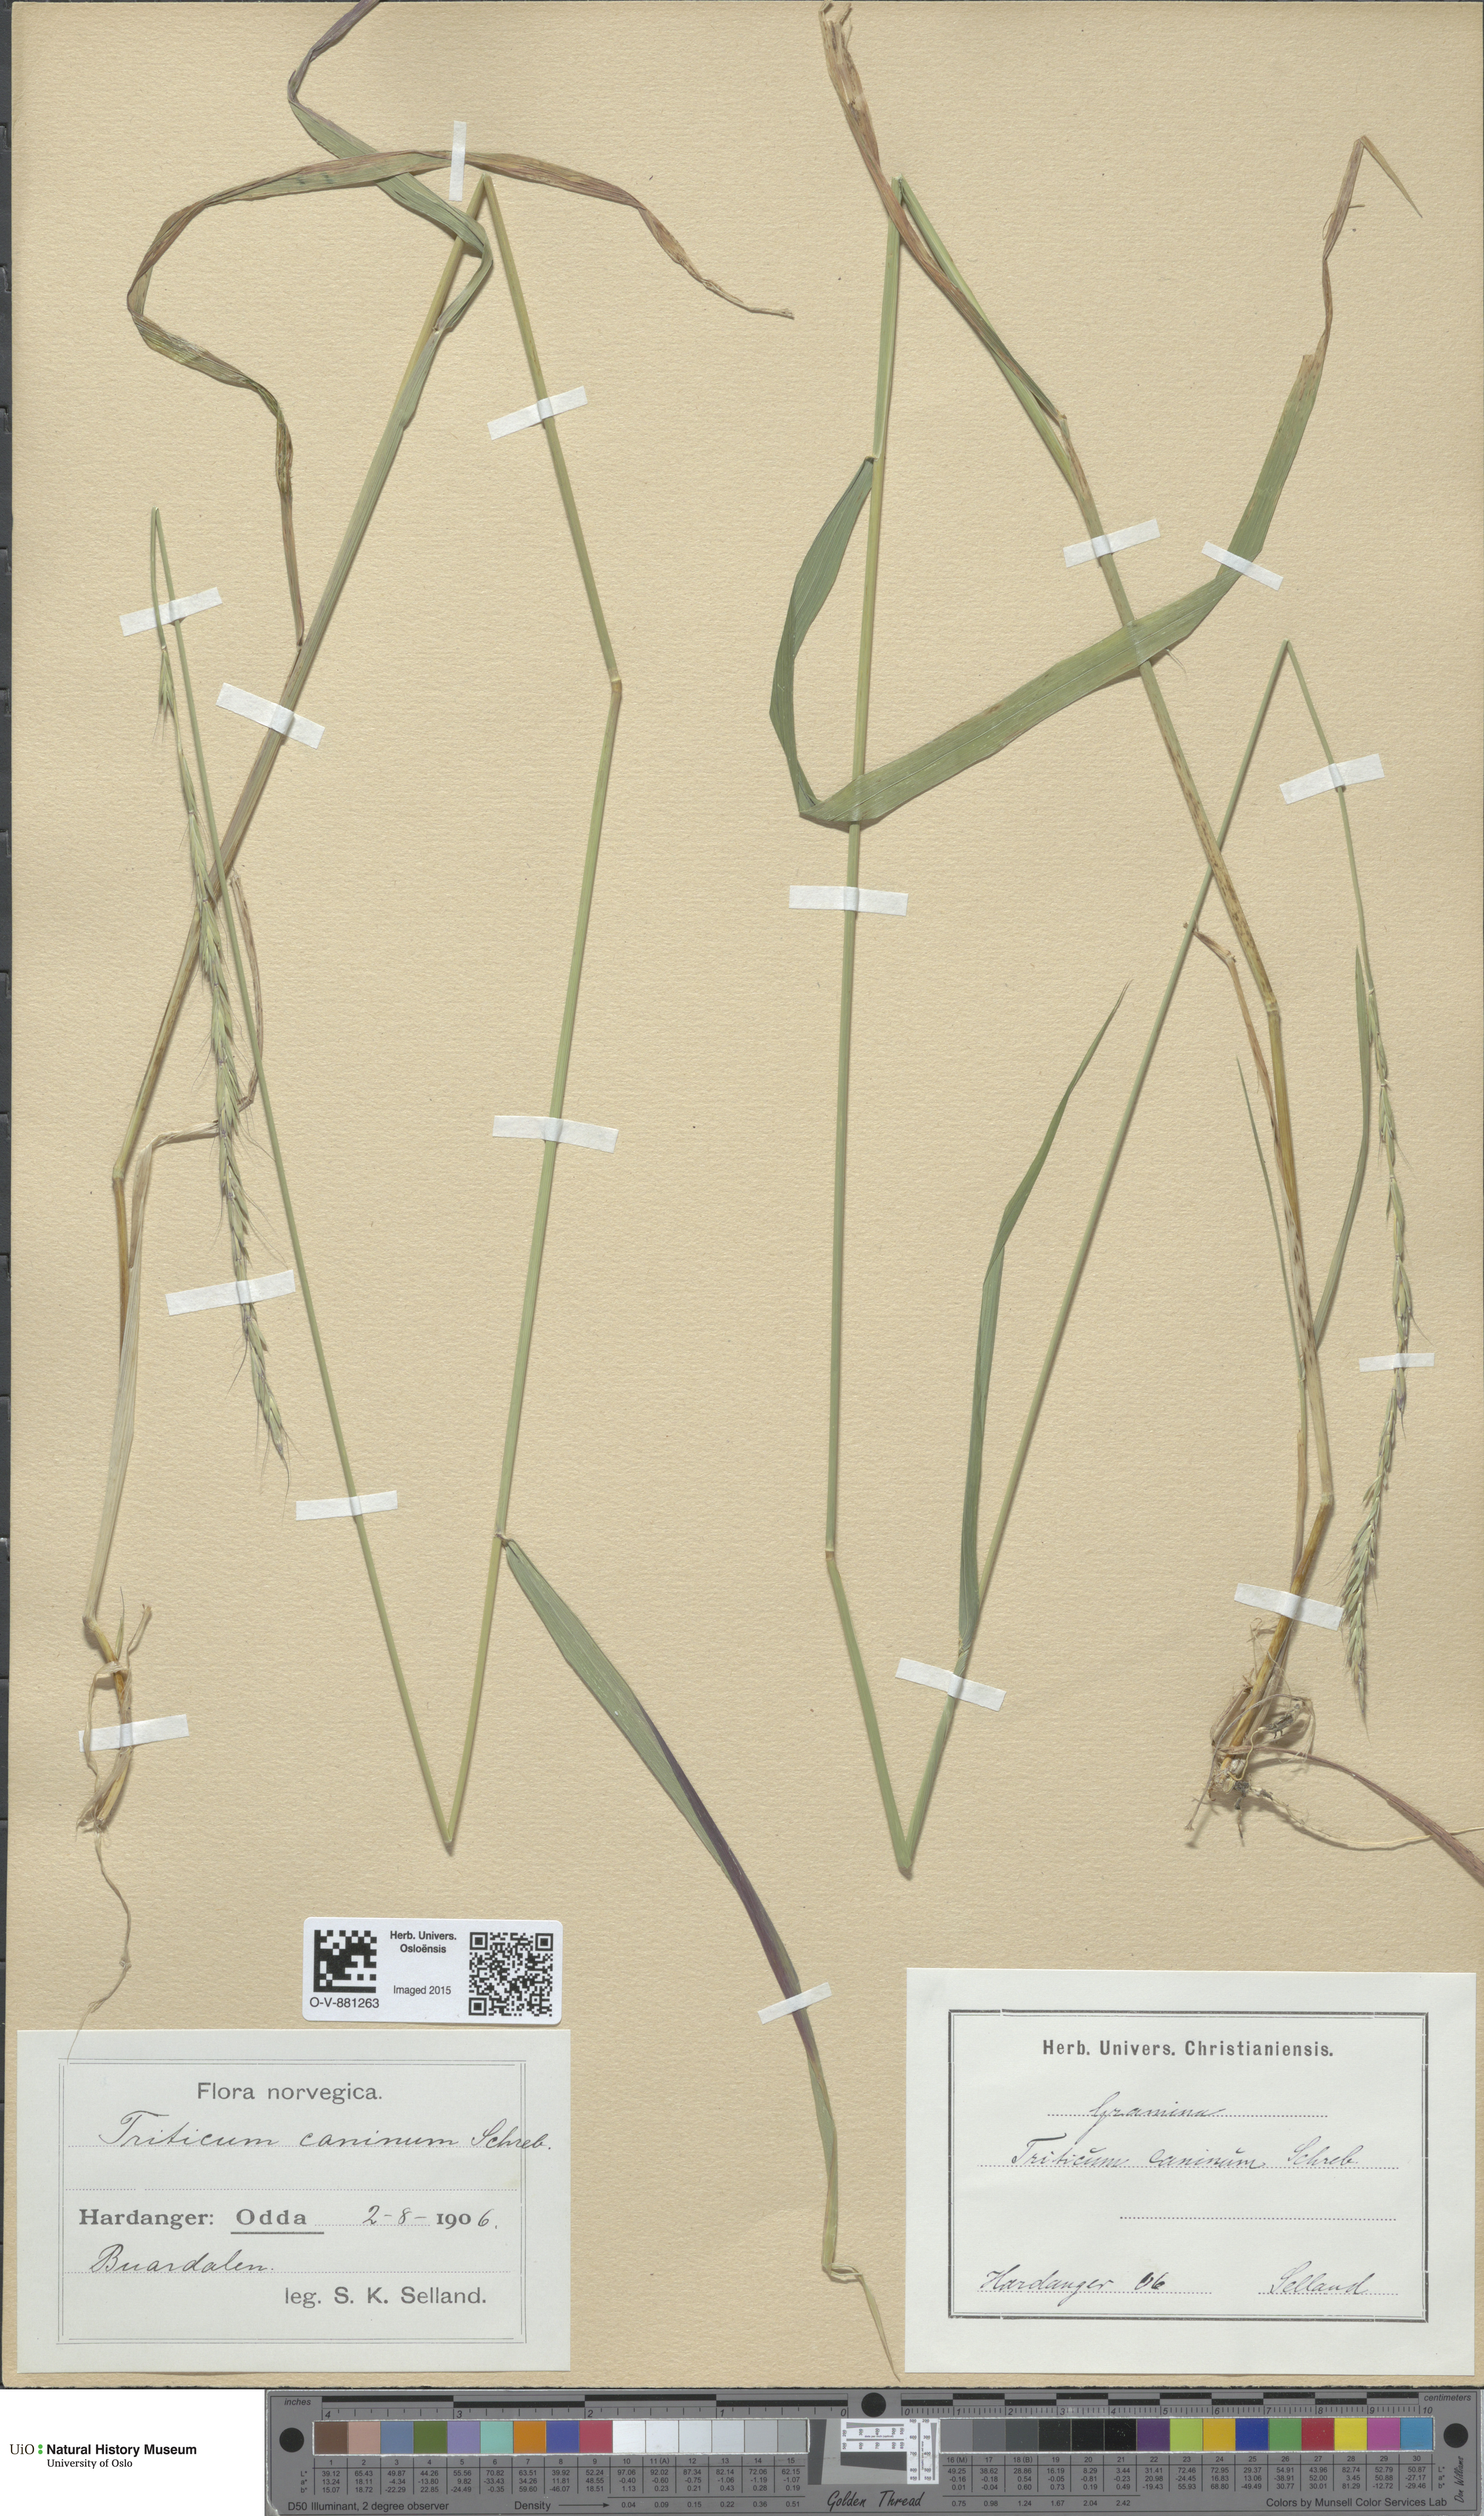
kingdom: Plantae
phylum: Tracheophyta
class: Liliopsida
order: Poales
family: Poaceae
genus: Elymus
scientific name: Elymus caninus
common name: Bearded couch
